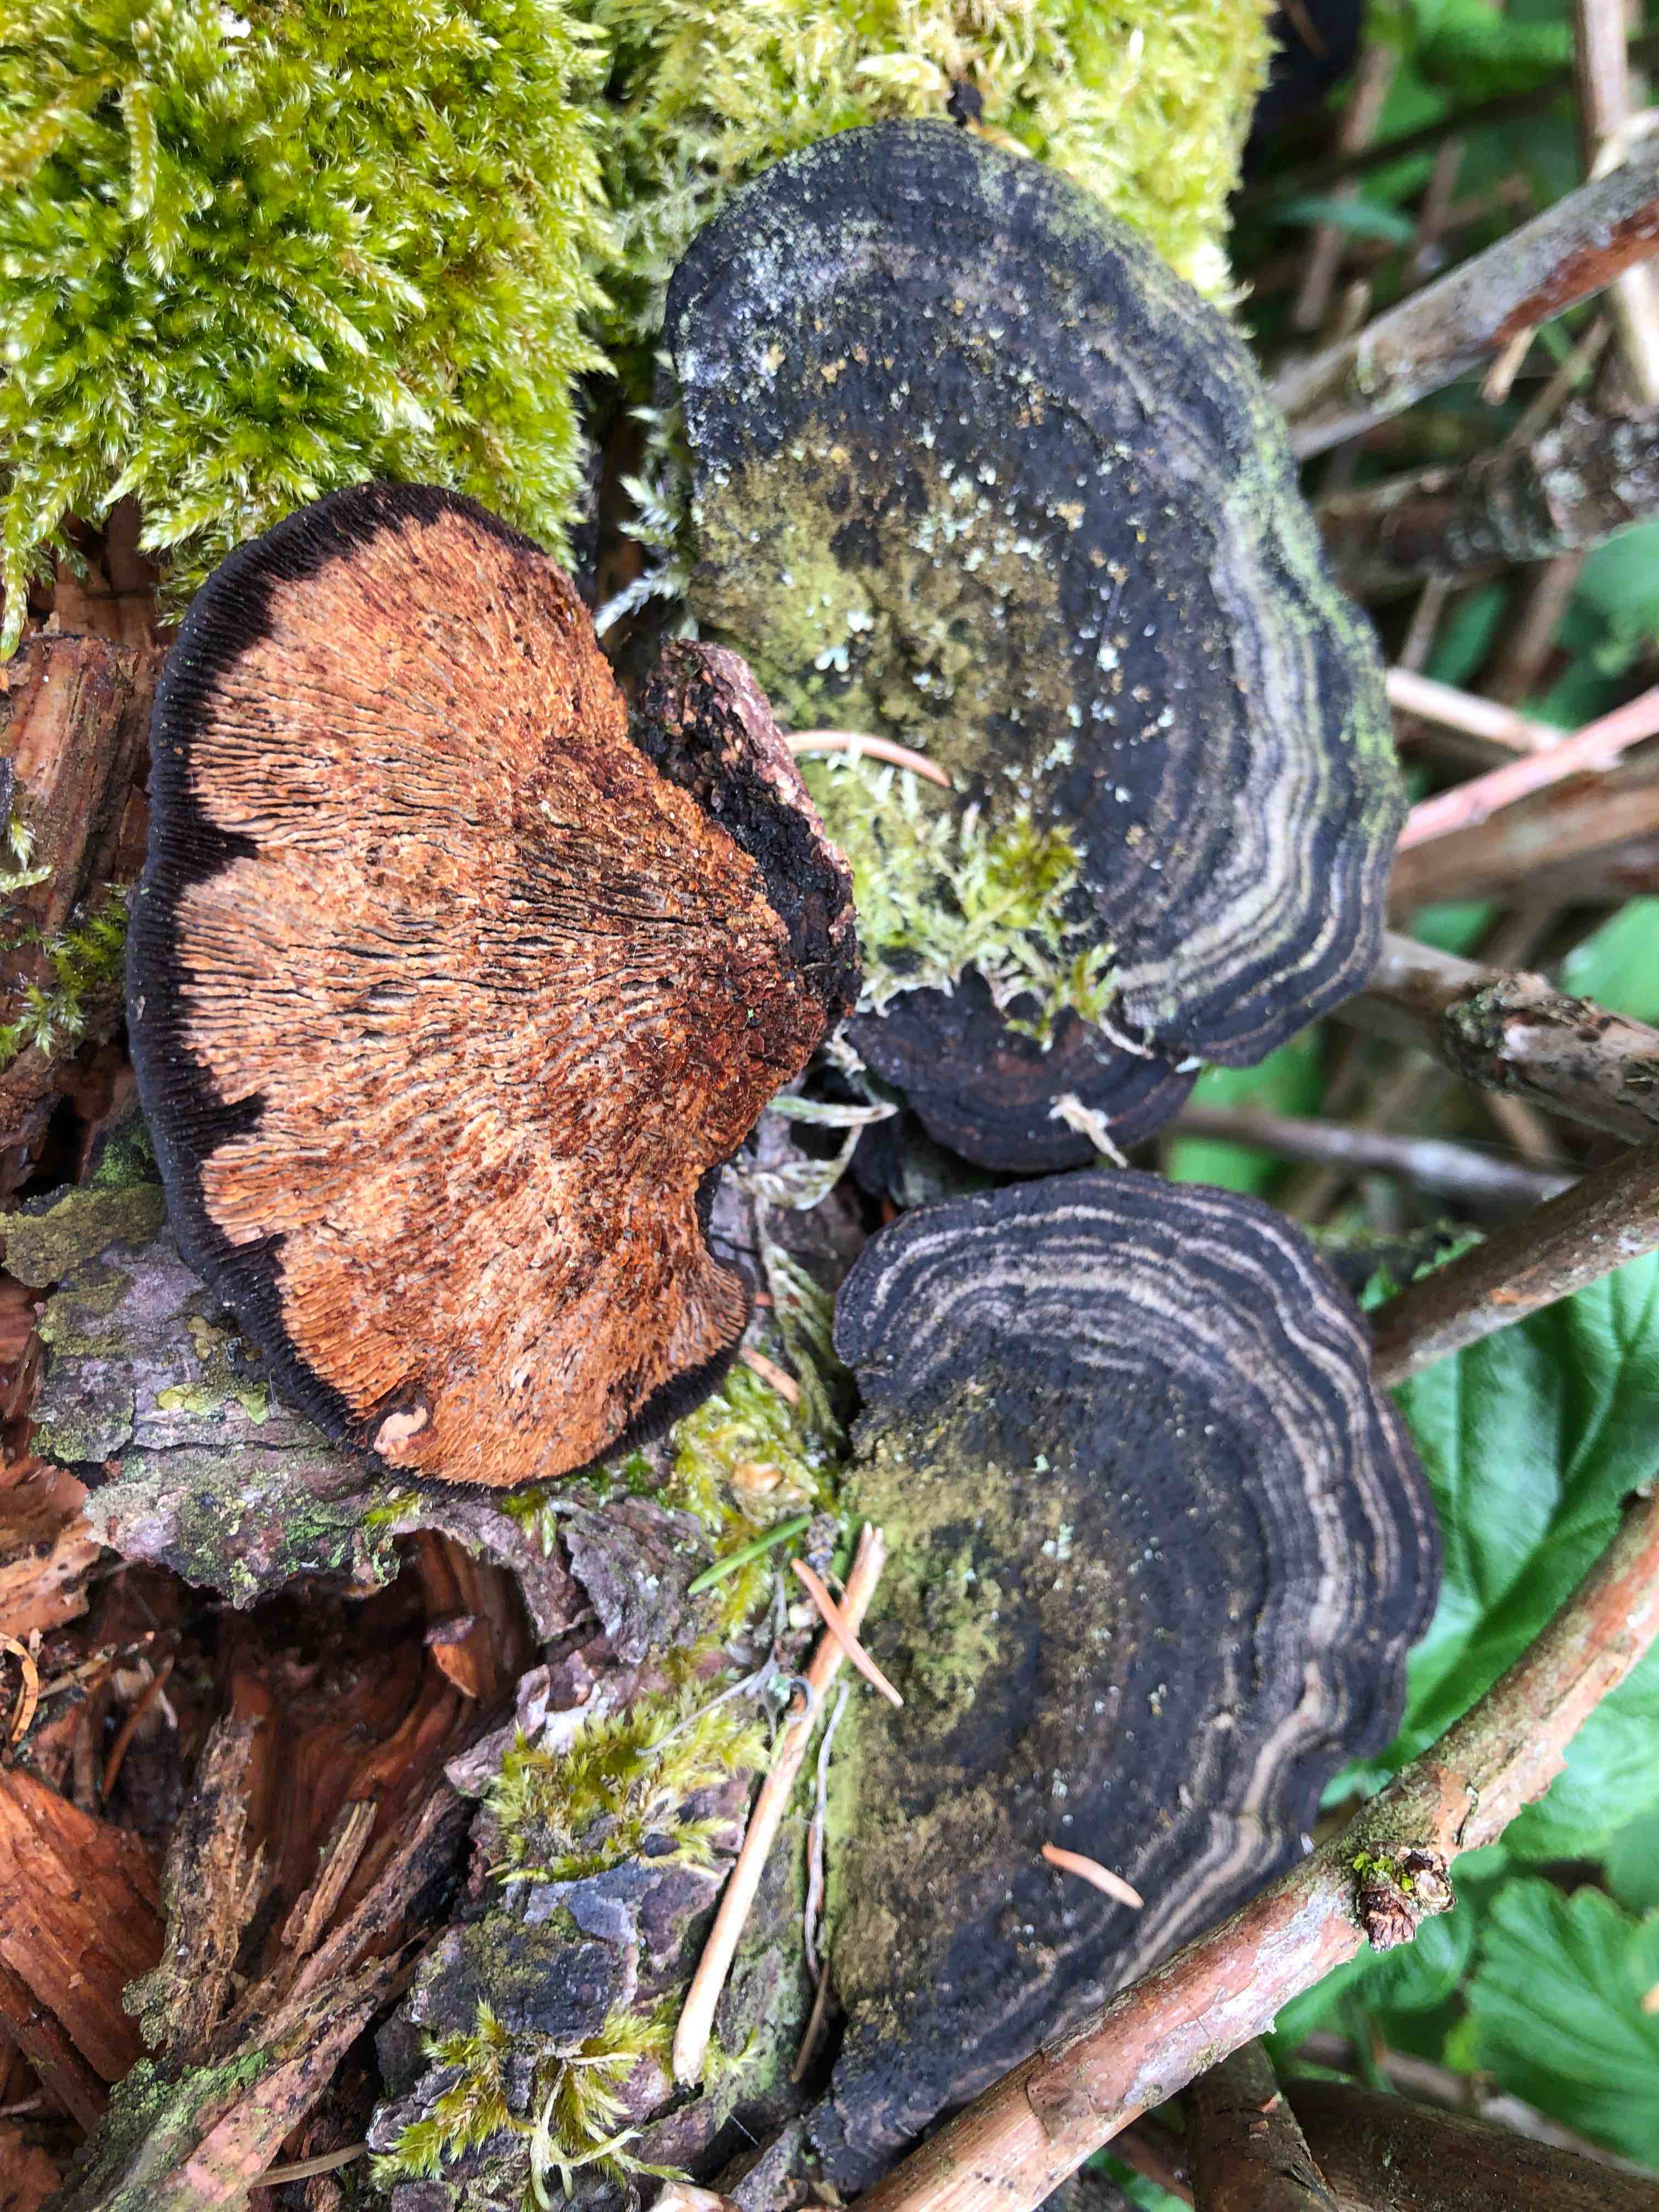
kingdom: Fungi
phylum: Basidiomycota
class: Agaricomycetes
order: Gloeophyllales
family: Gloeophyllaceae
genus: Gloeophyllum
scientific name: Gloeophyllum sepiarium
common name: fyrre-korkhat
